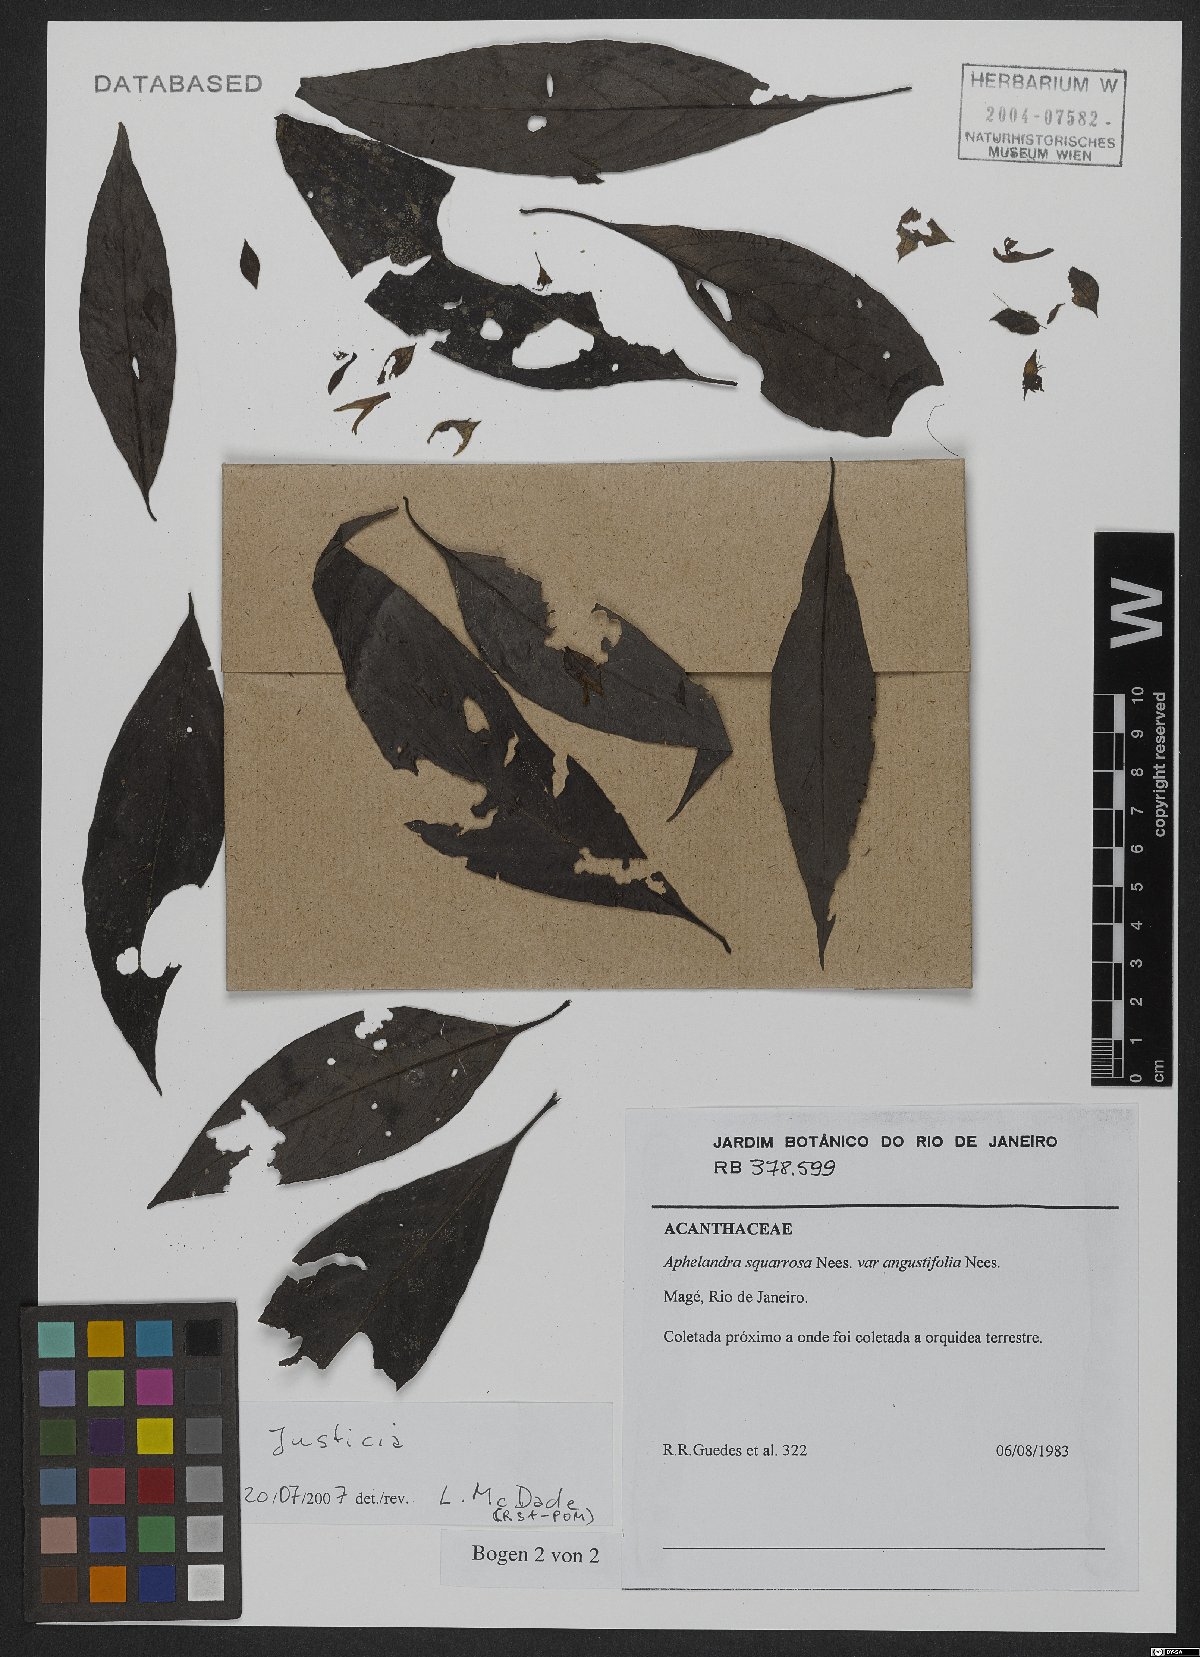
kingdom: Plantae
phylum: Tracheophyta
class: Magnoliopsida
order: Lamiales
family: Acanthaceae
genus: Justicia
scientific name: Justicia
